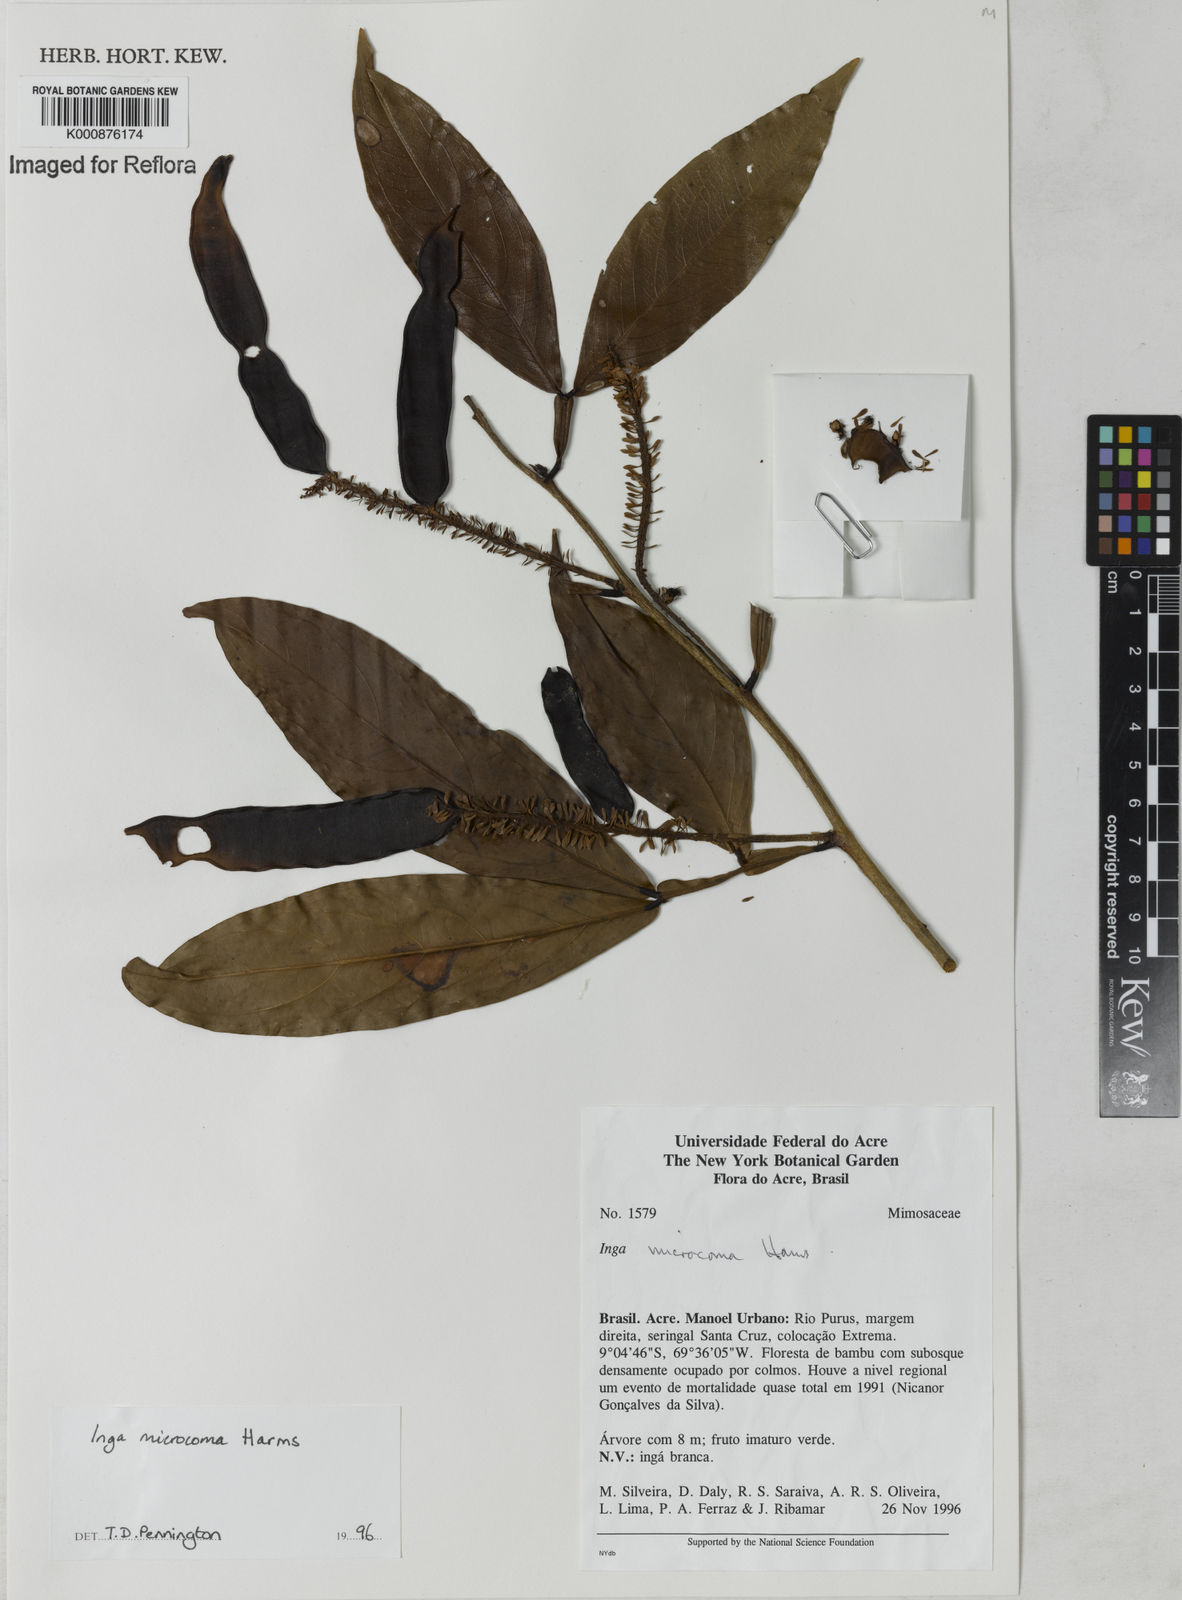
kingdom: Plantae
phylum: Tracheophyta
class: Magnoliopsida
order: Fabales
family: Fabaceae
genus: Inga
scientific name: Inga microcoma
